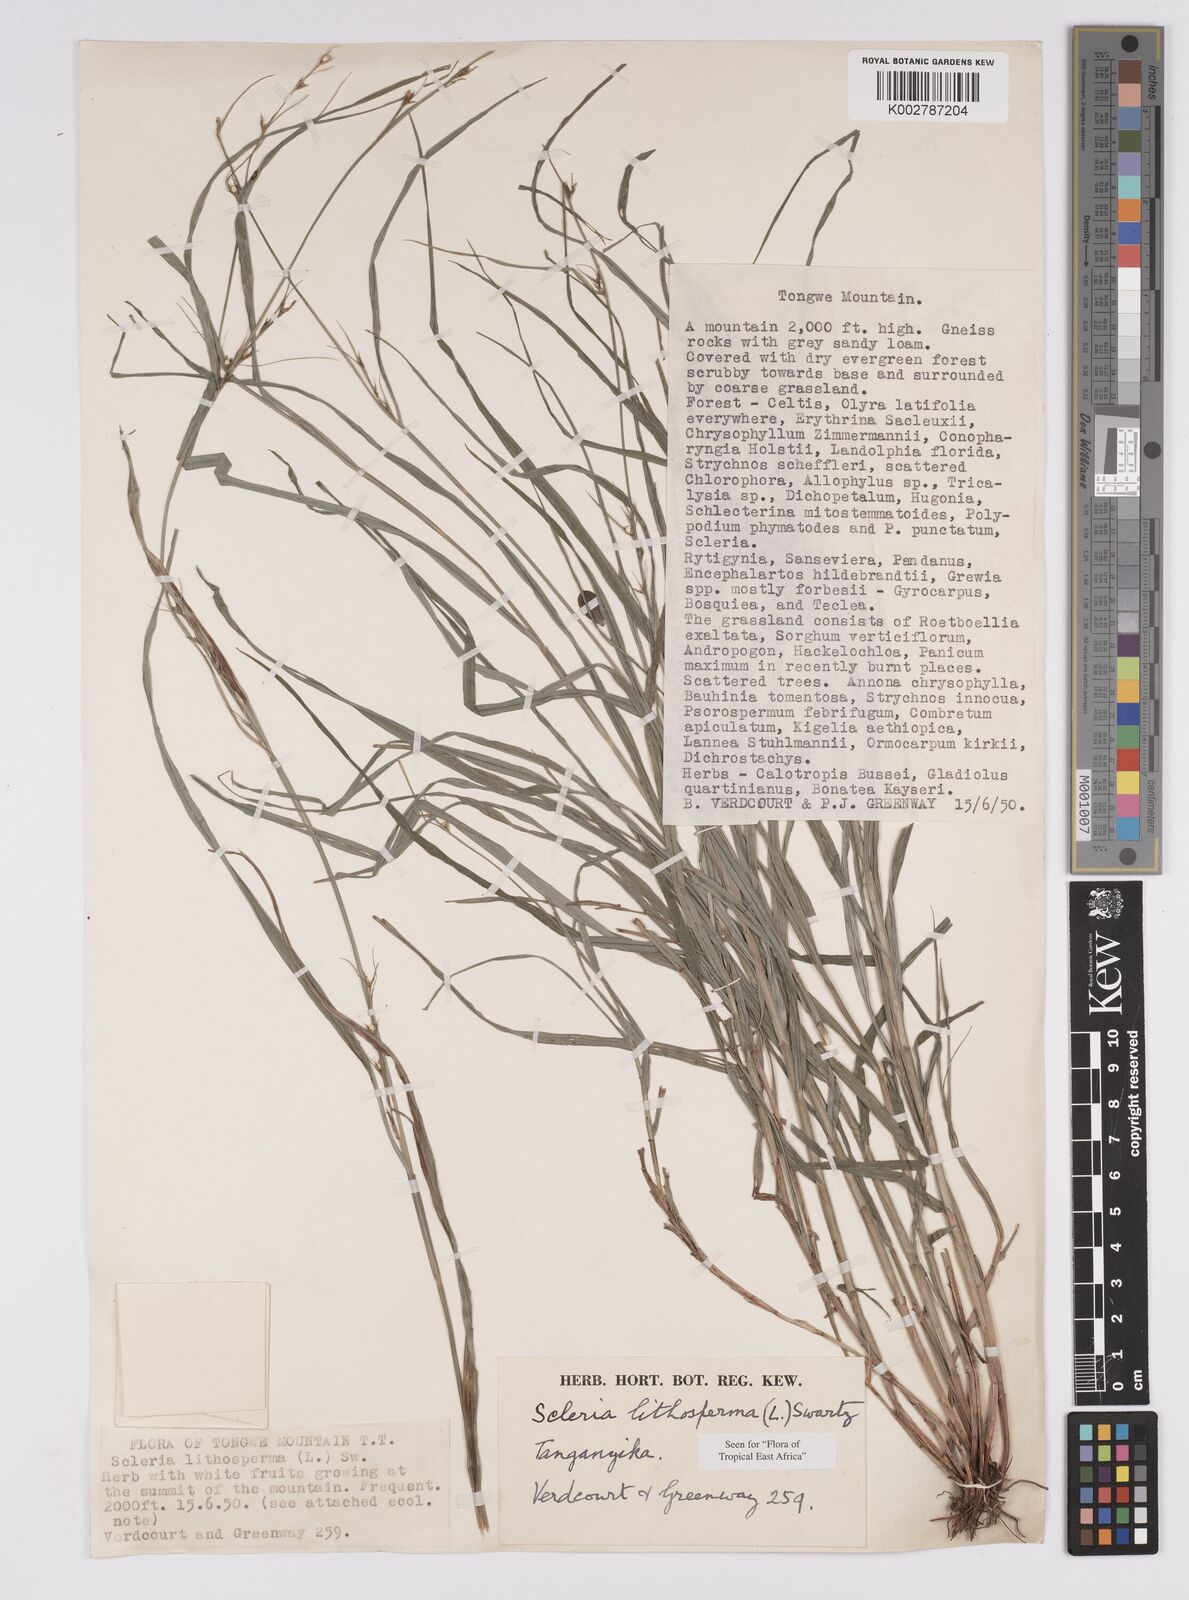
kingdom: Plantae
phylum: Tracheophyta
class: Liliopsida
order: Poales
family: Cyperaceae
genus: Scleria
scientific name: Scleria lithosperma
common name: Florida keys nut-rush
